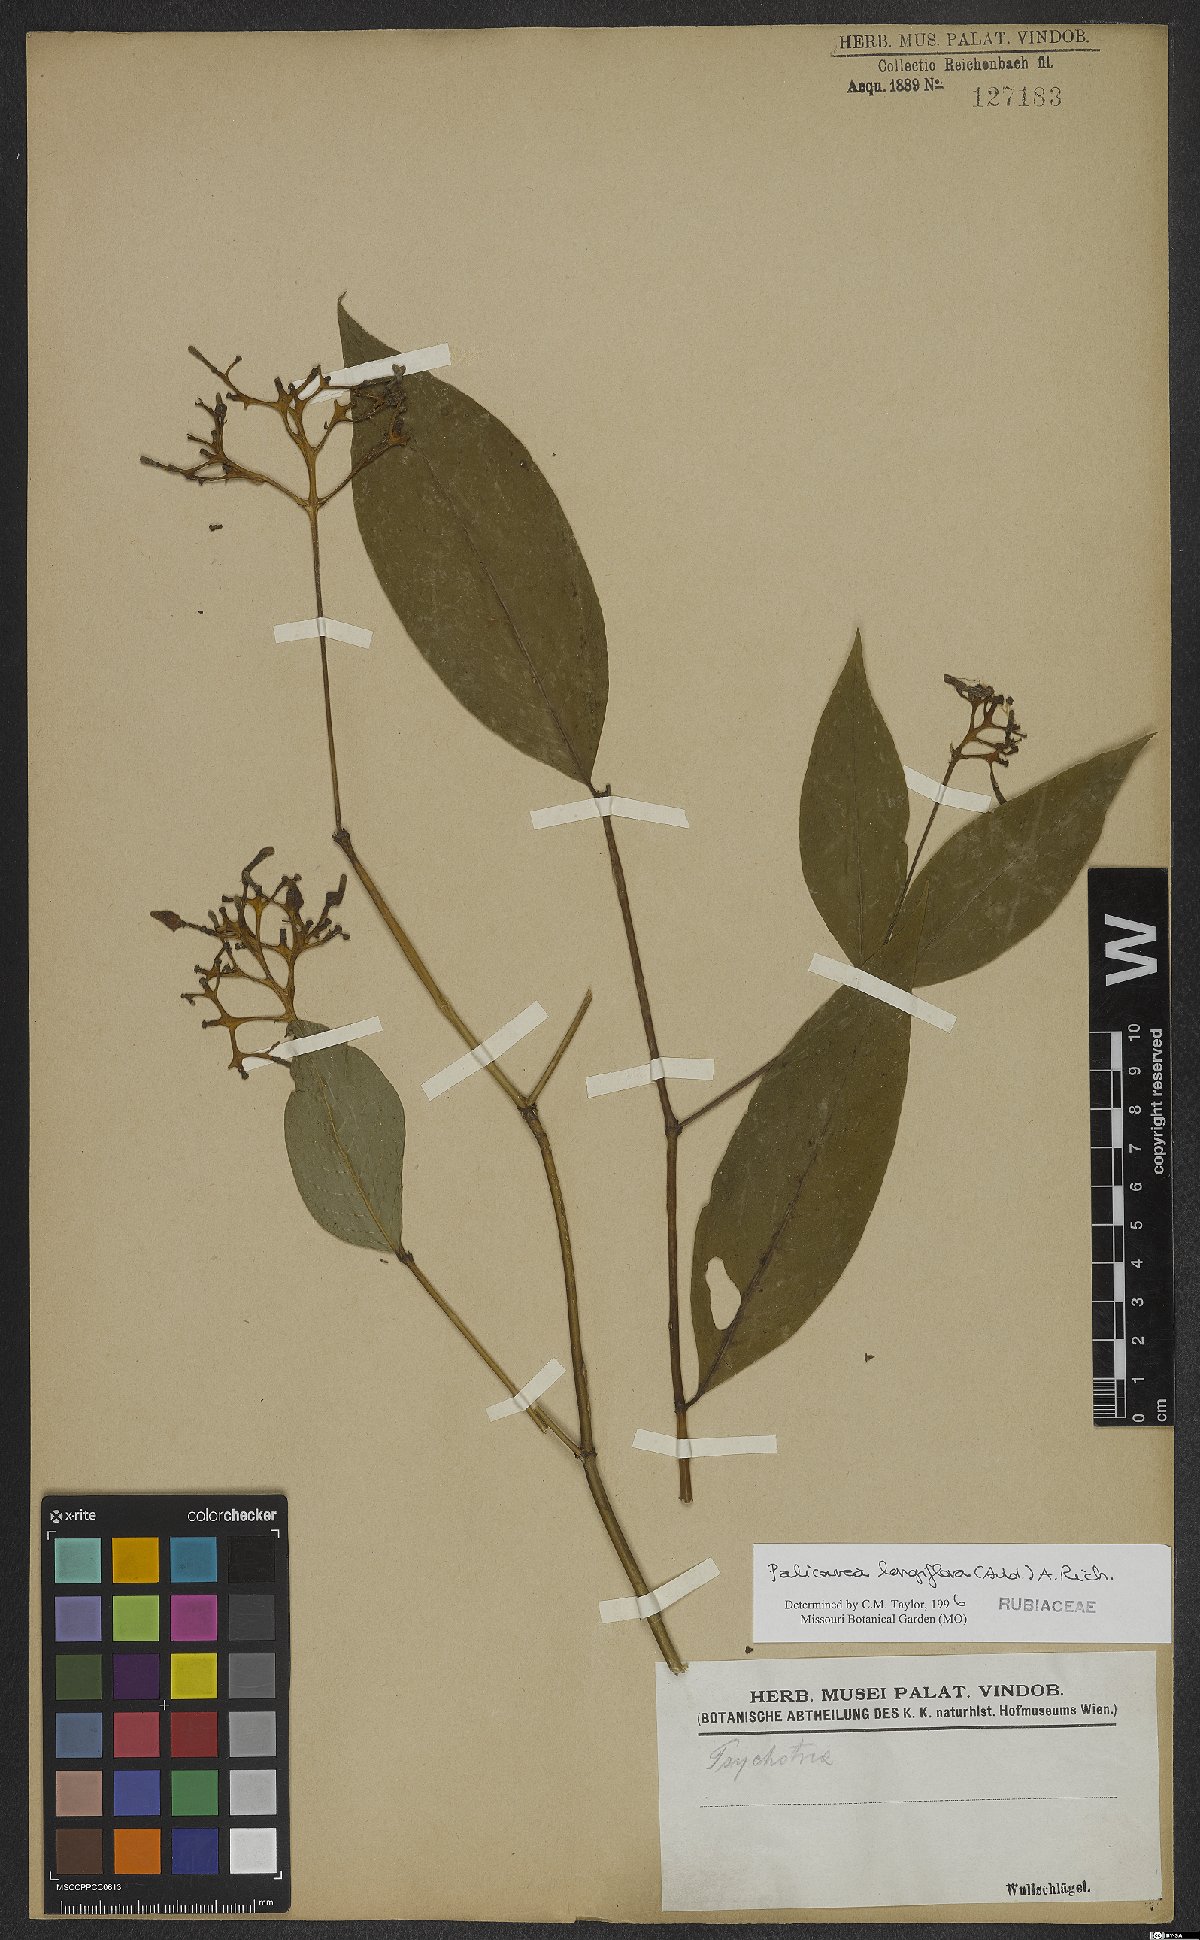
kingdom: Plantae
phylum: Tracheophyta
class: Magnoliopsida
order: Gentianales
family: Rubiaceae
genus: Palicourea
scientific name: Palicourea longiflora
